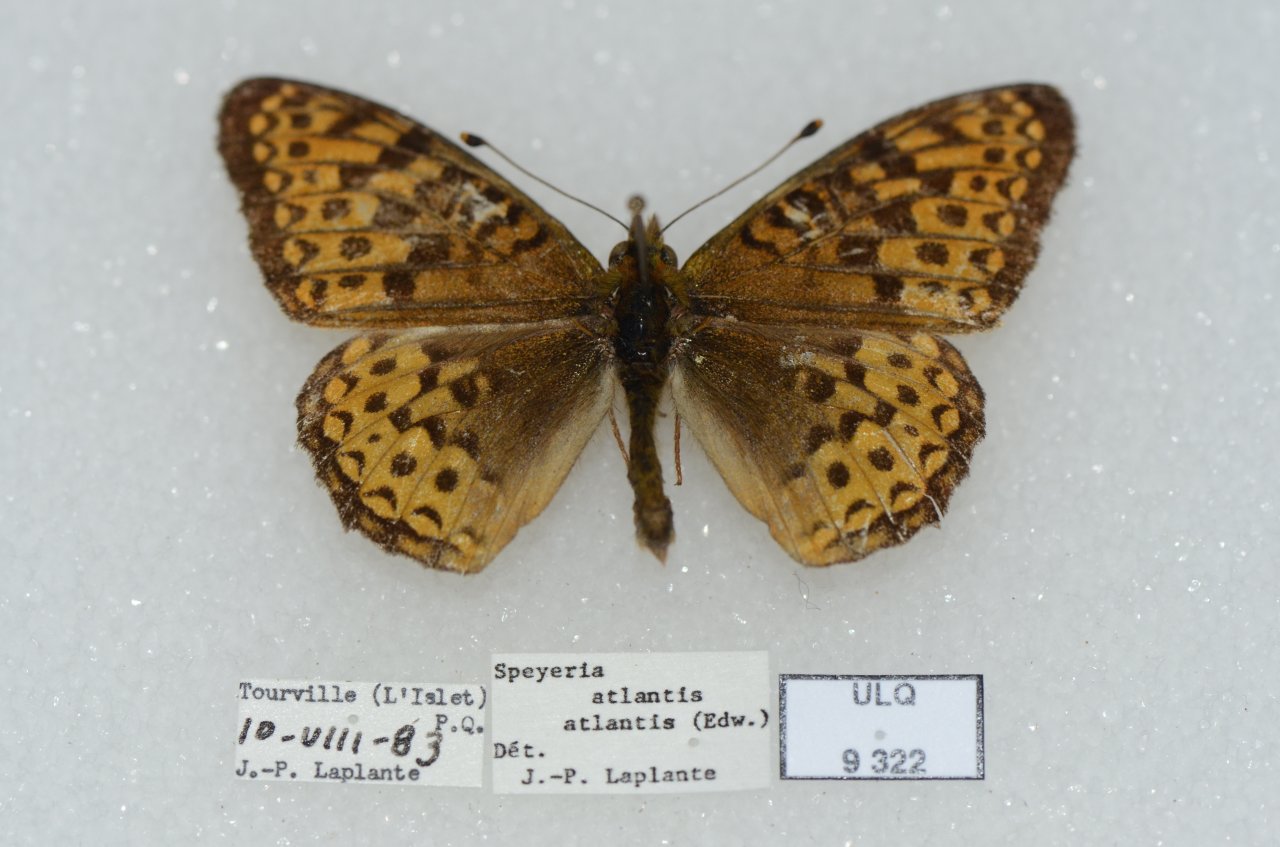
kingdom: Animalia
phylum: Arthropoda
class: Insecta
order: Lepidoptera
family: Nymphalidae
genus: Speyeria
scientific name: Speyeria atlantis
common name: Atlantis Fritillary
